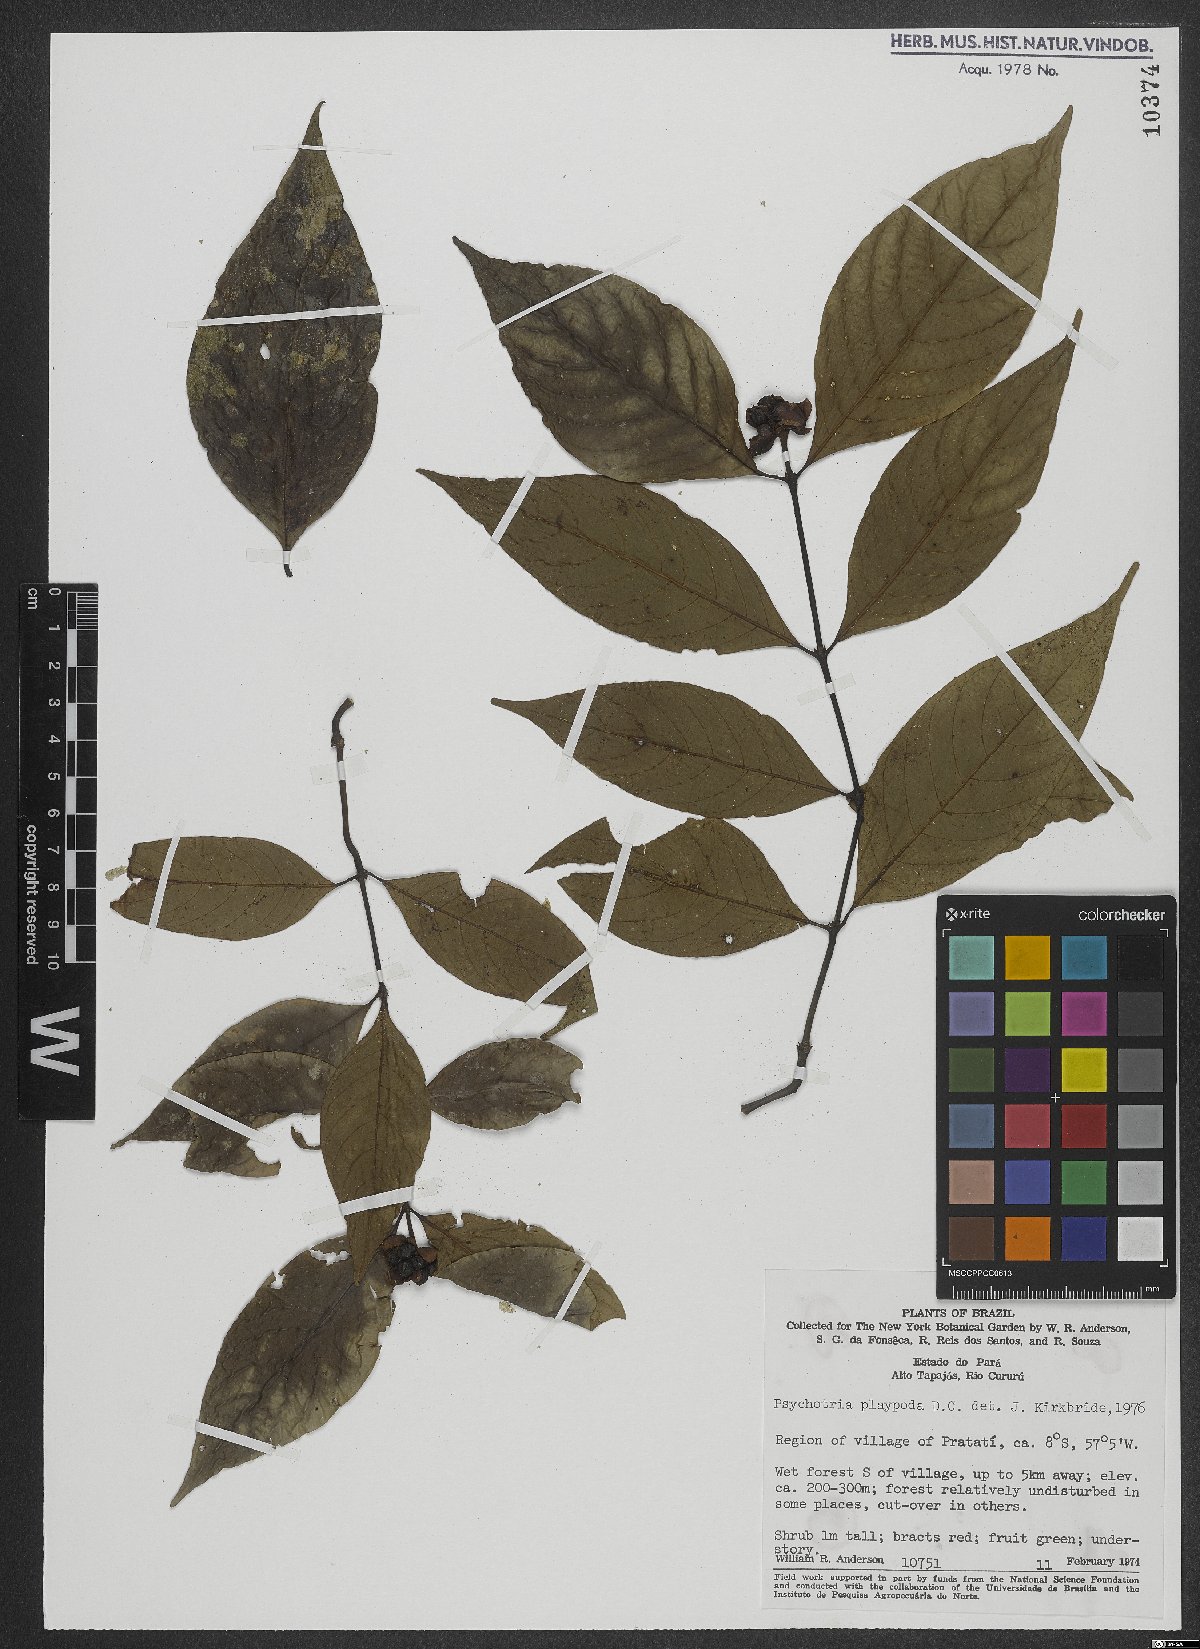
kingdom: Plantae
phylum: Tracheophyta
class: Magnoliopsida
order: Gentianales
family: Rubiaceae
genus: Palicourea
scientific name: Palicourea dichotoma
